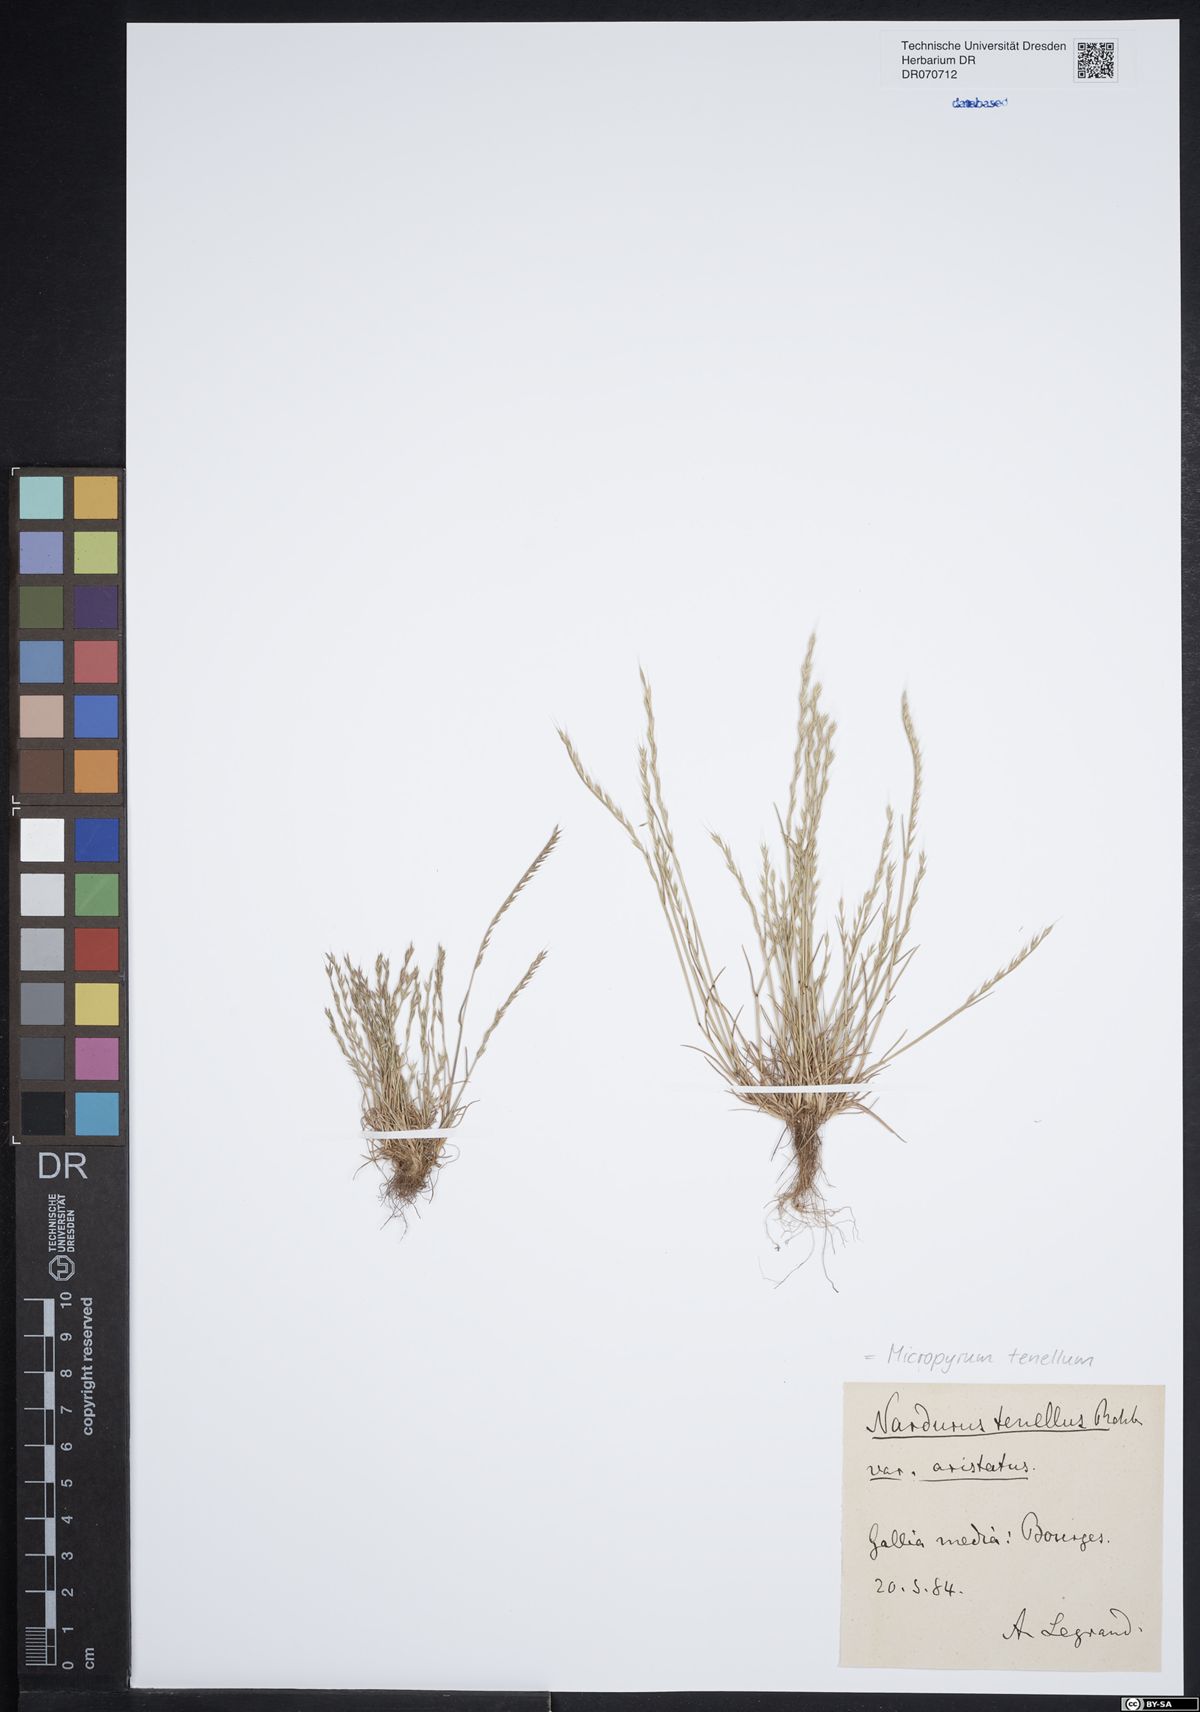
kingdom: Plantae
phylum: Tracheophyta
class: Liliopsida
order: Poales
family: Poaceae
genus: Festuca
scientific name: Festuca lachenalii
